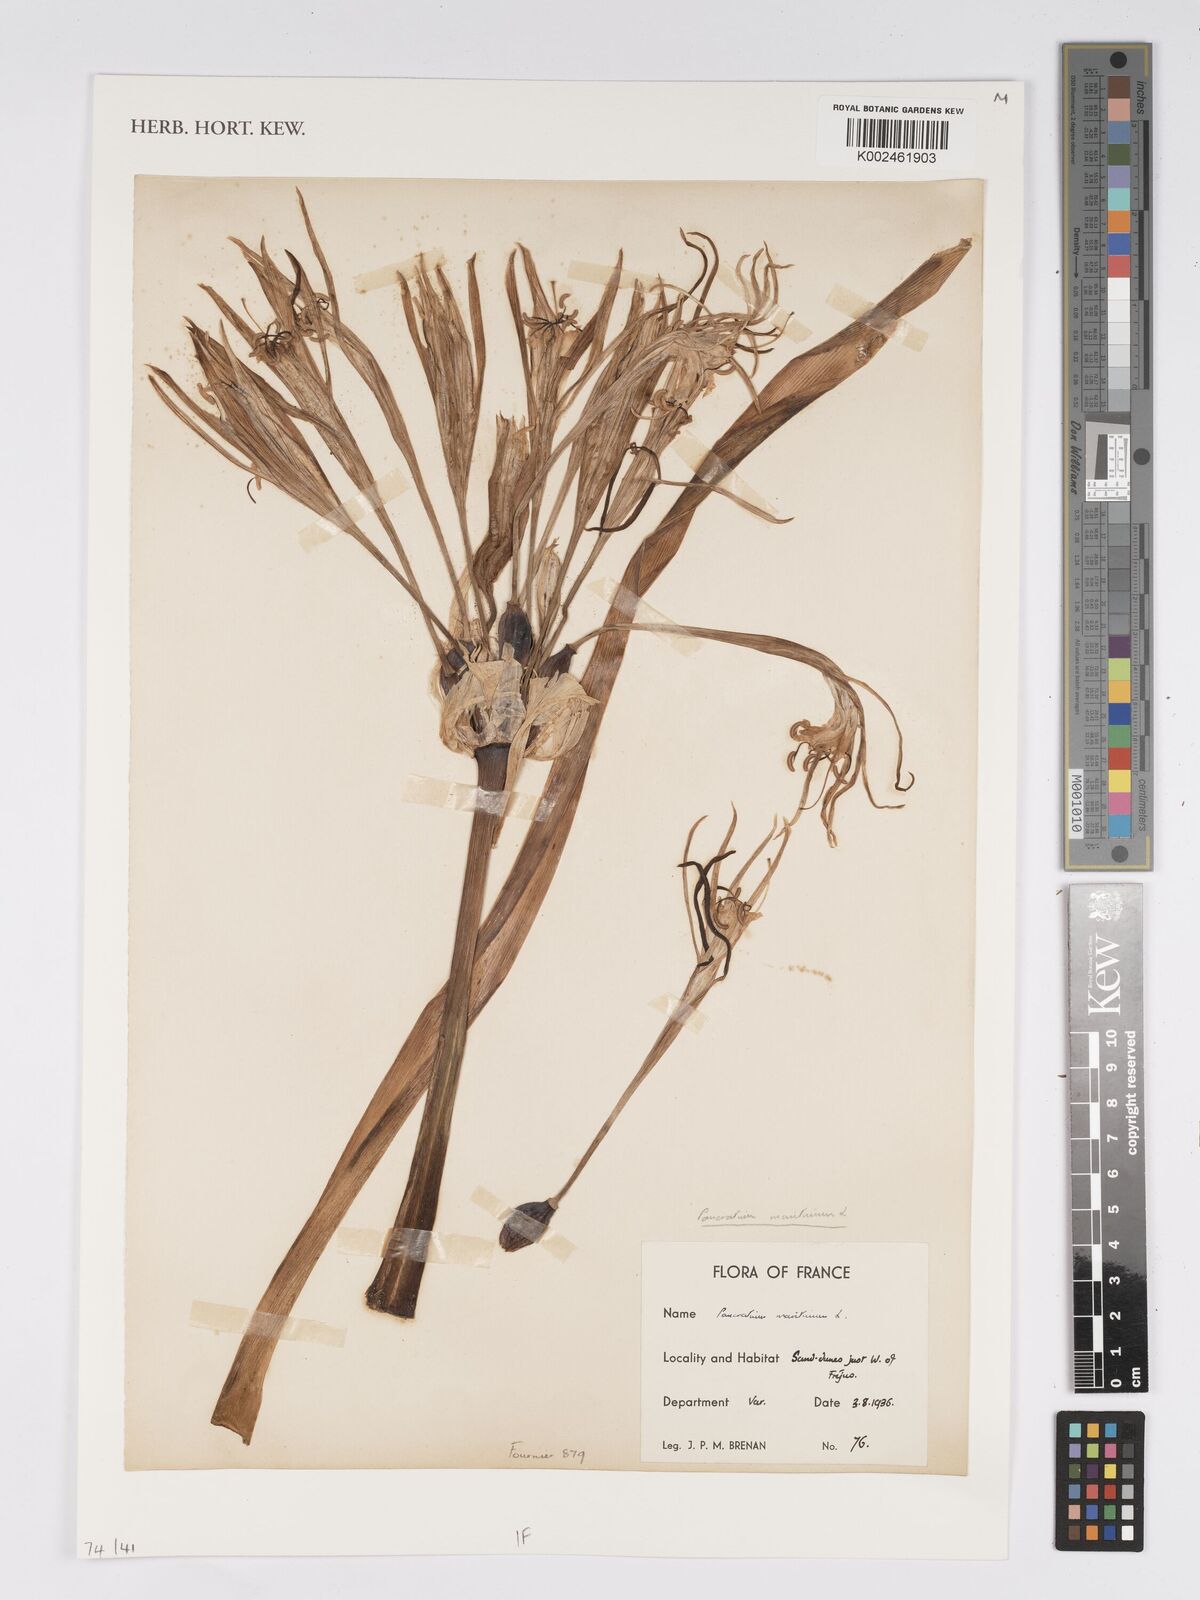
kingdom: Plantae
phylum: Tracheophyta
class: Liliopsida
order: Asparagales
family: Amaryllidaceae
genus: Pancratium
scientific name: Pancratium maritimum
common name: Sea-daffodil
